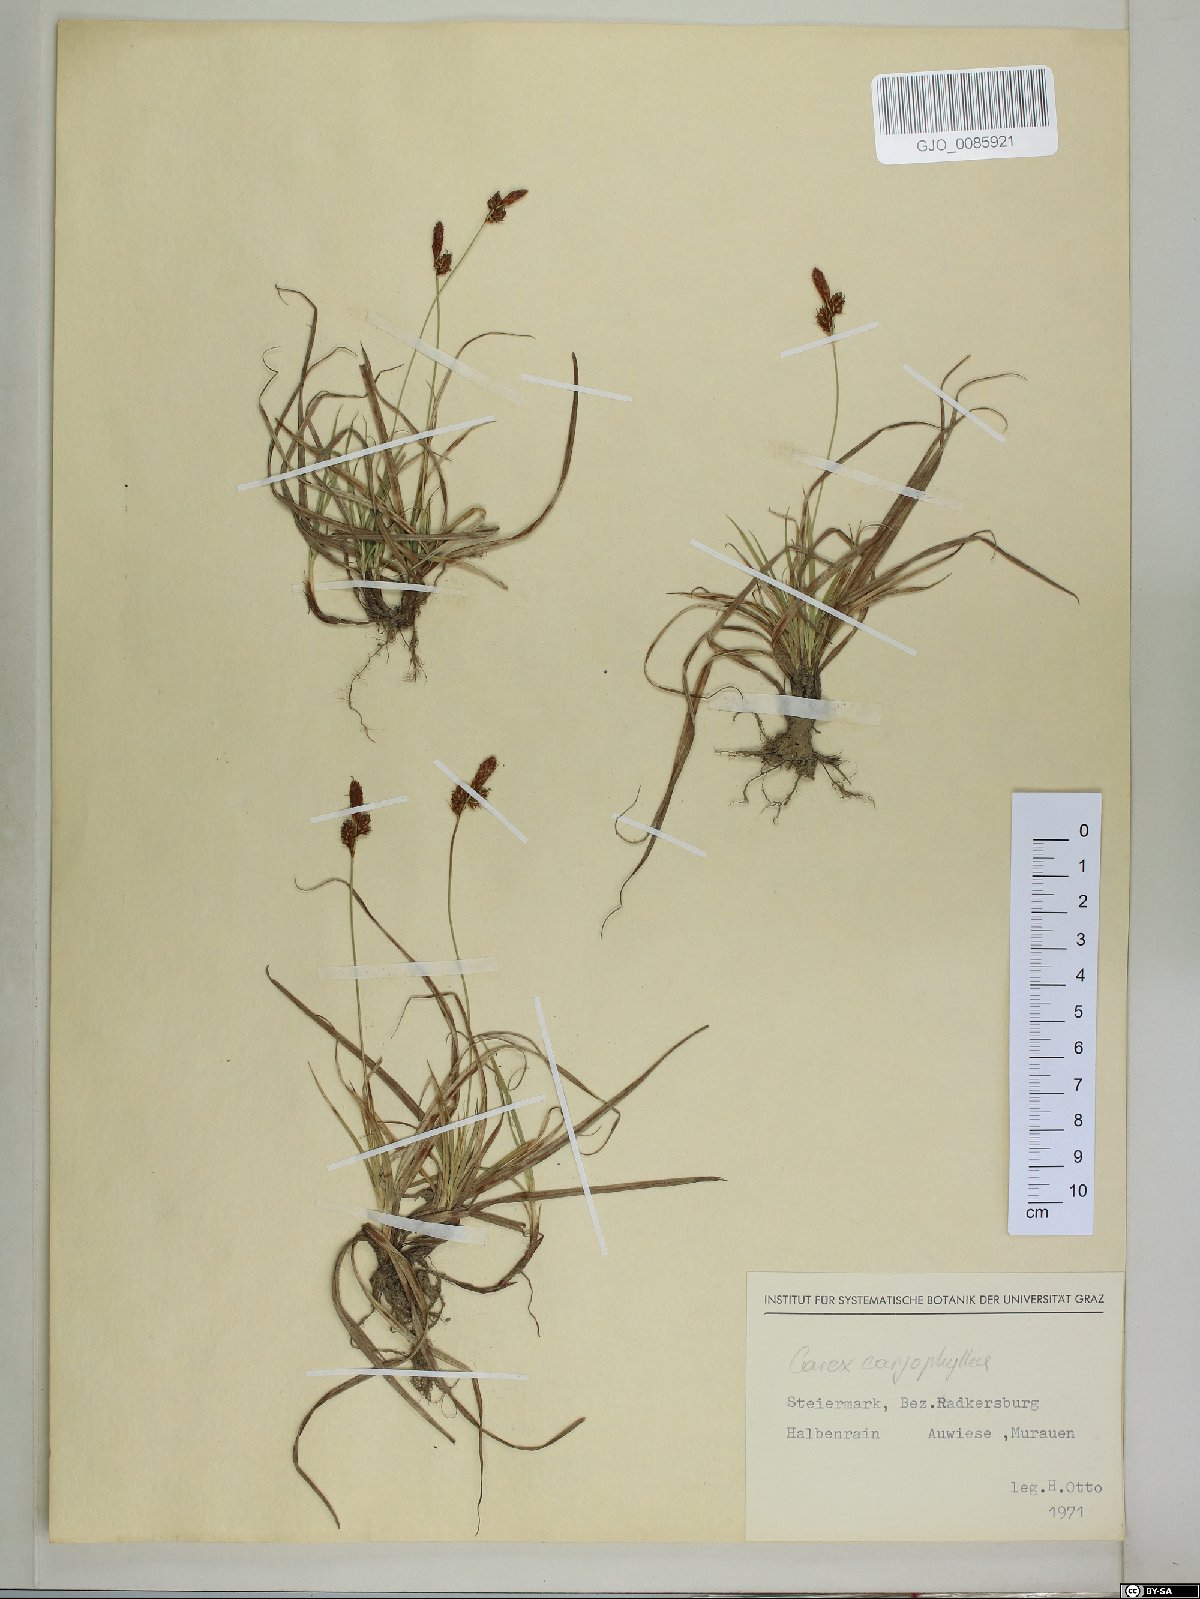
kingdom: Plantae
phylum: Tracheophyta
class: Liliopsida
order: Poales
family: Cyperaceae
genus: Carex
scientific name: Carex caryophyllea
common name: Spring sedge
